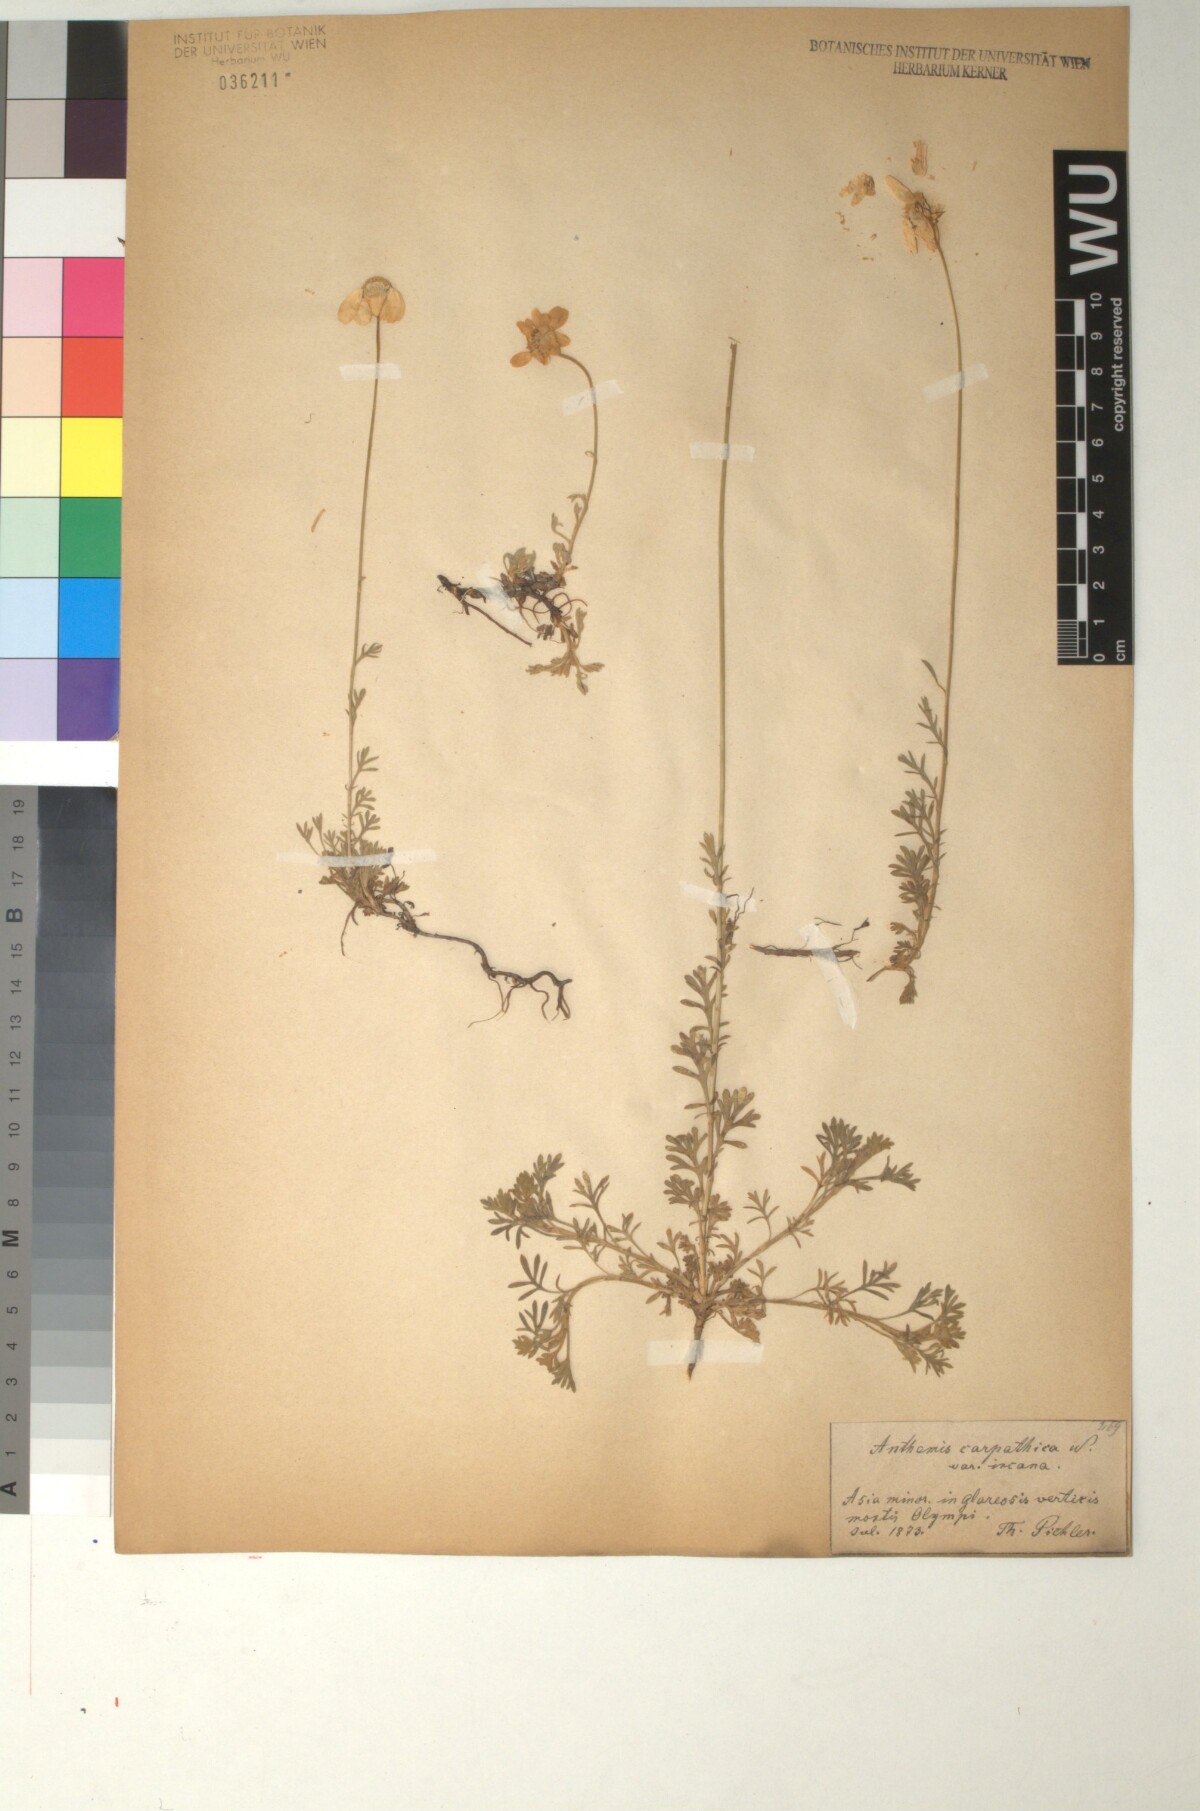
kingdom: Plantae
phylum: Tracheophyta
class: Magnoliopsida
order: Asterales
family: Asteraceae
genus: Anthemis
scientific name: Anthemis cretica
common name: Mountain dog-daisy
